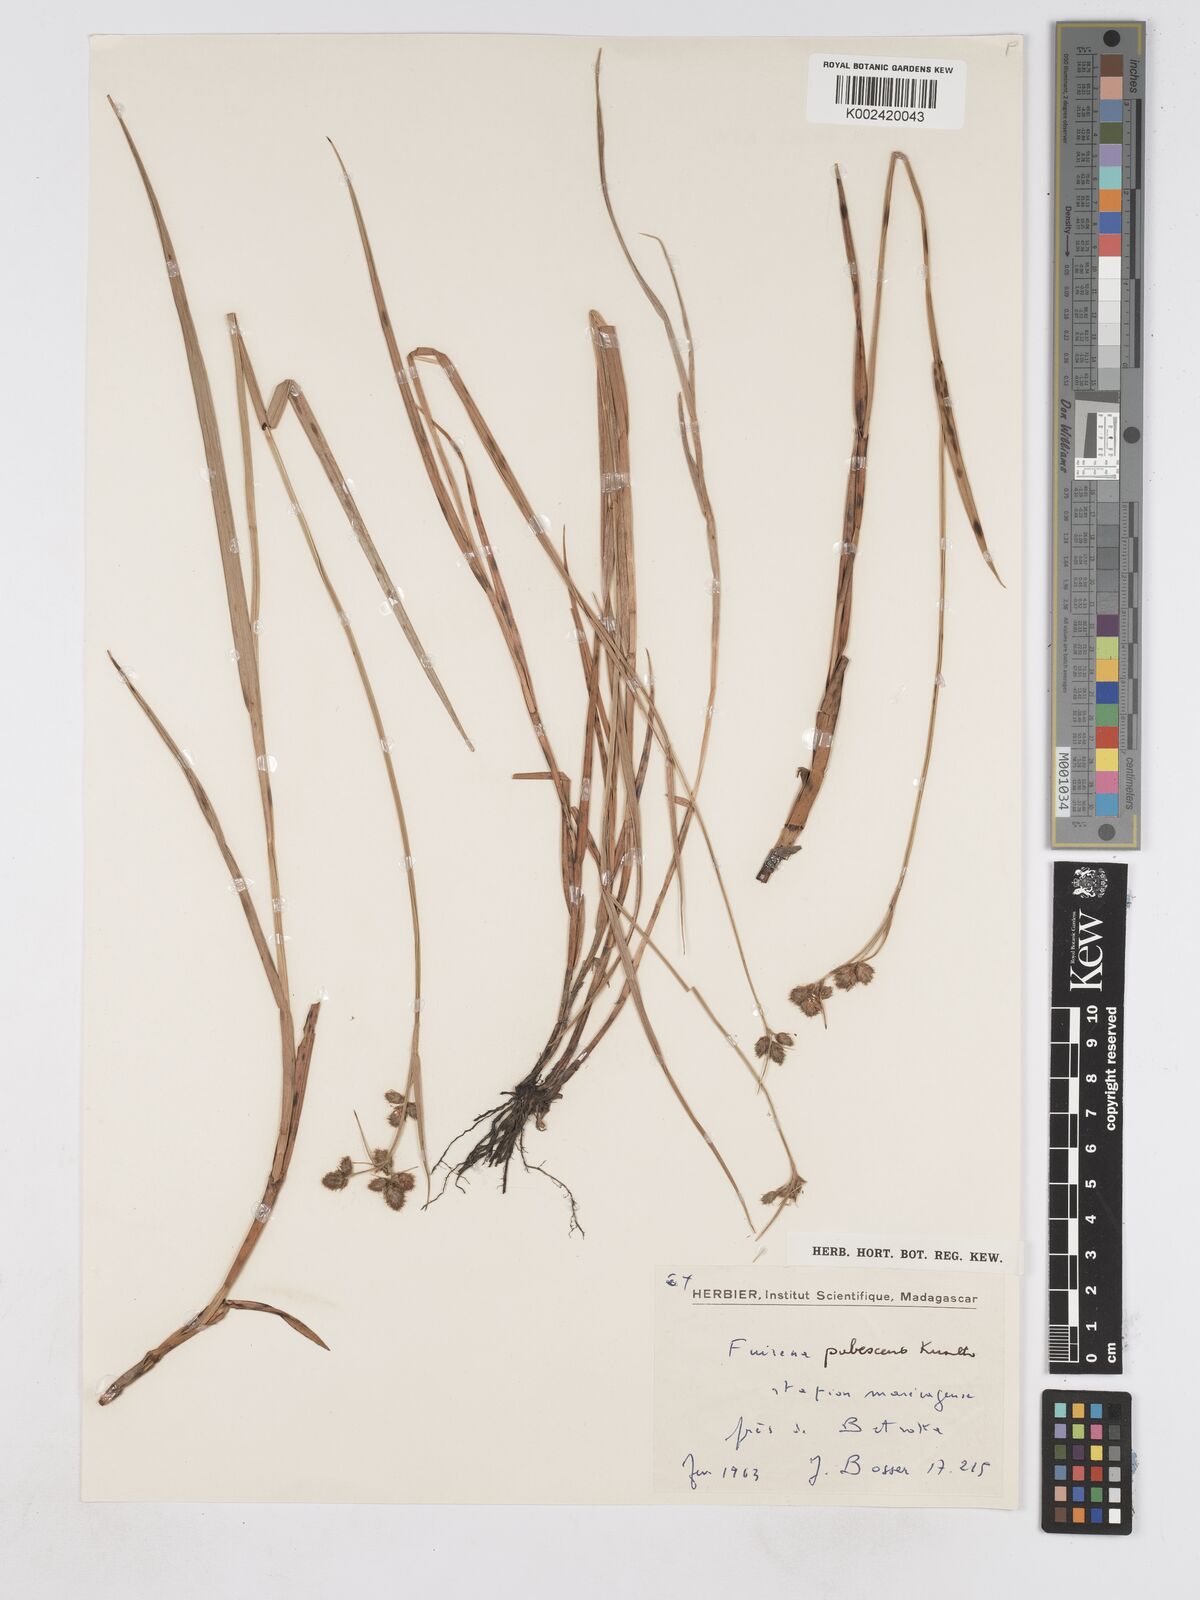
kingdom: Plantae
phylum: Tracheophyta
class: Liliopsida
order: Poales
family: Cyperaceae
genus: Fuirena
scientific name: Fuirena pubescens
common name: Hairy sedge
